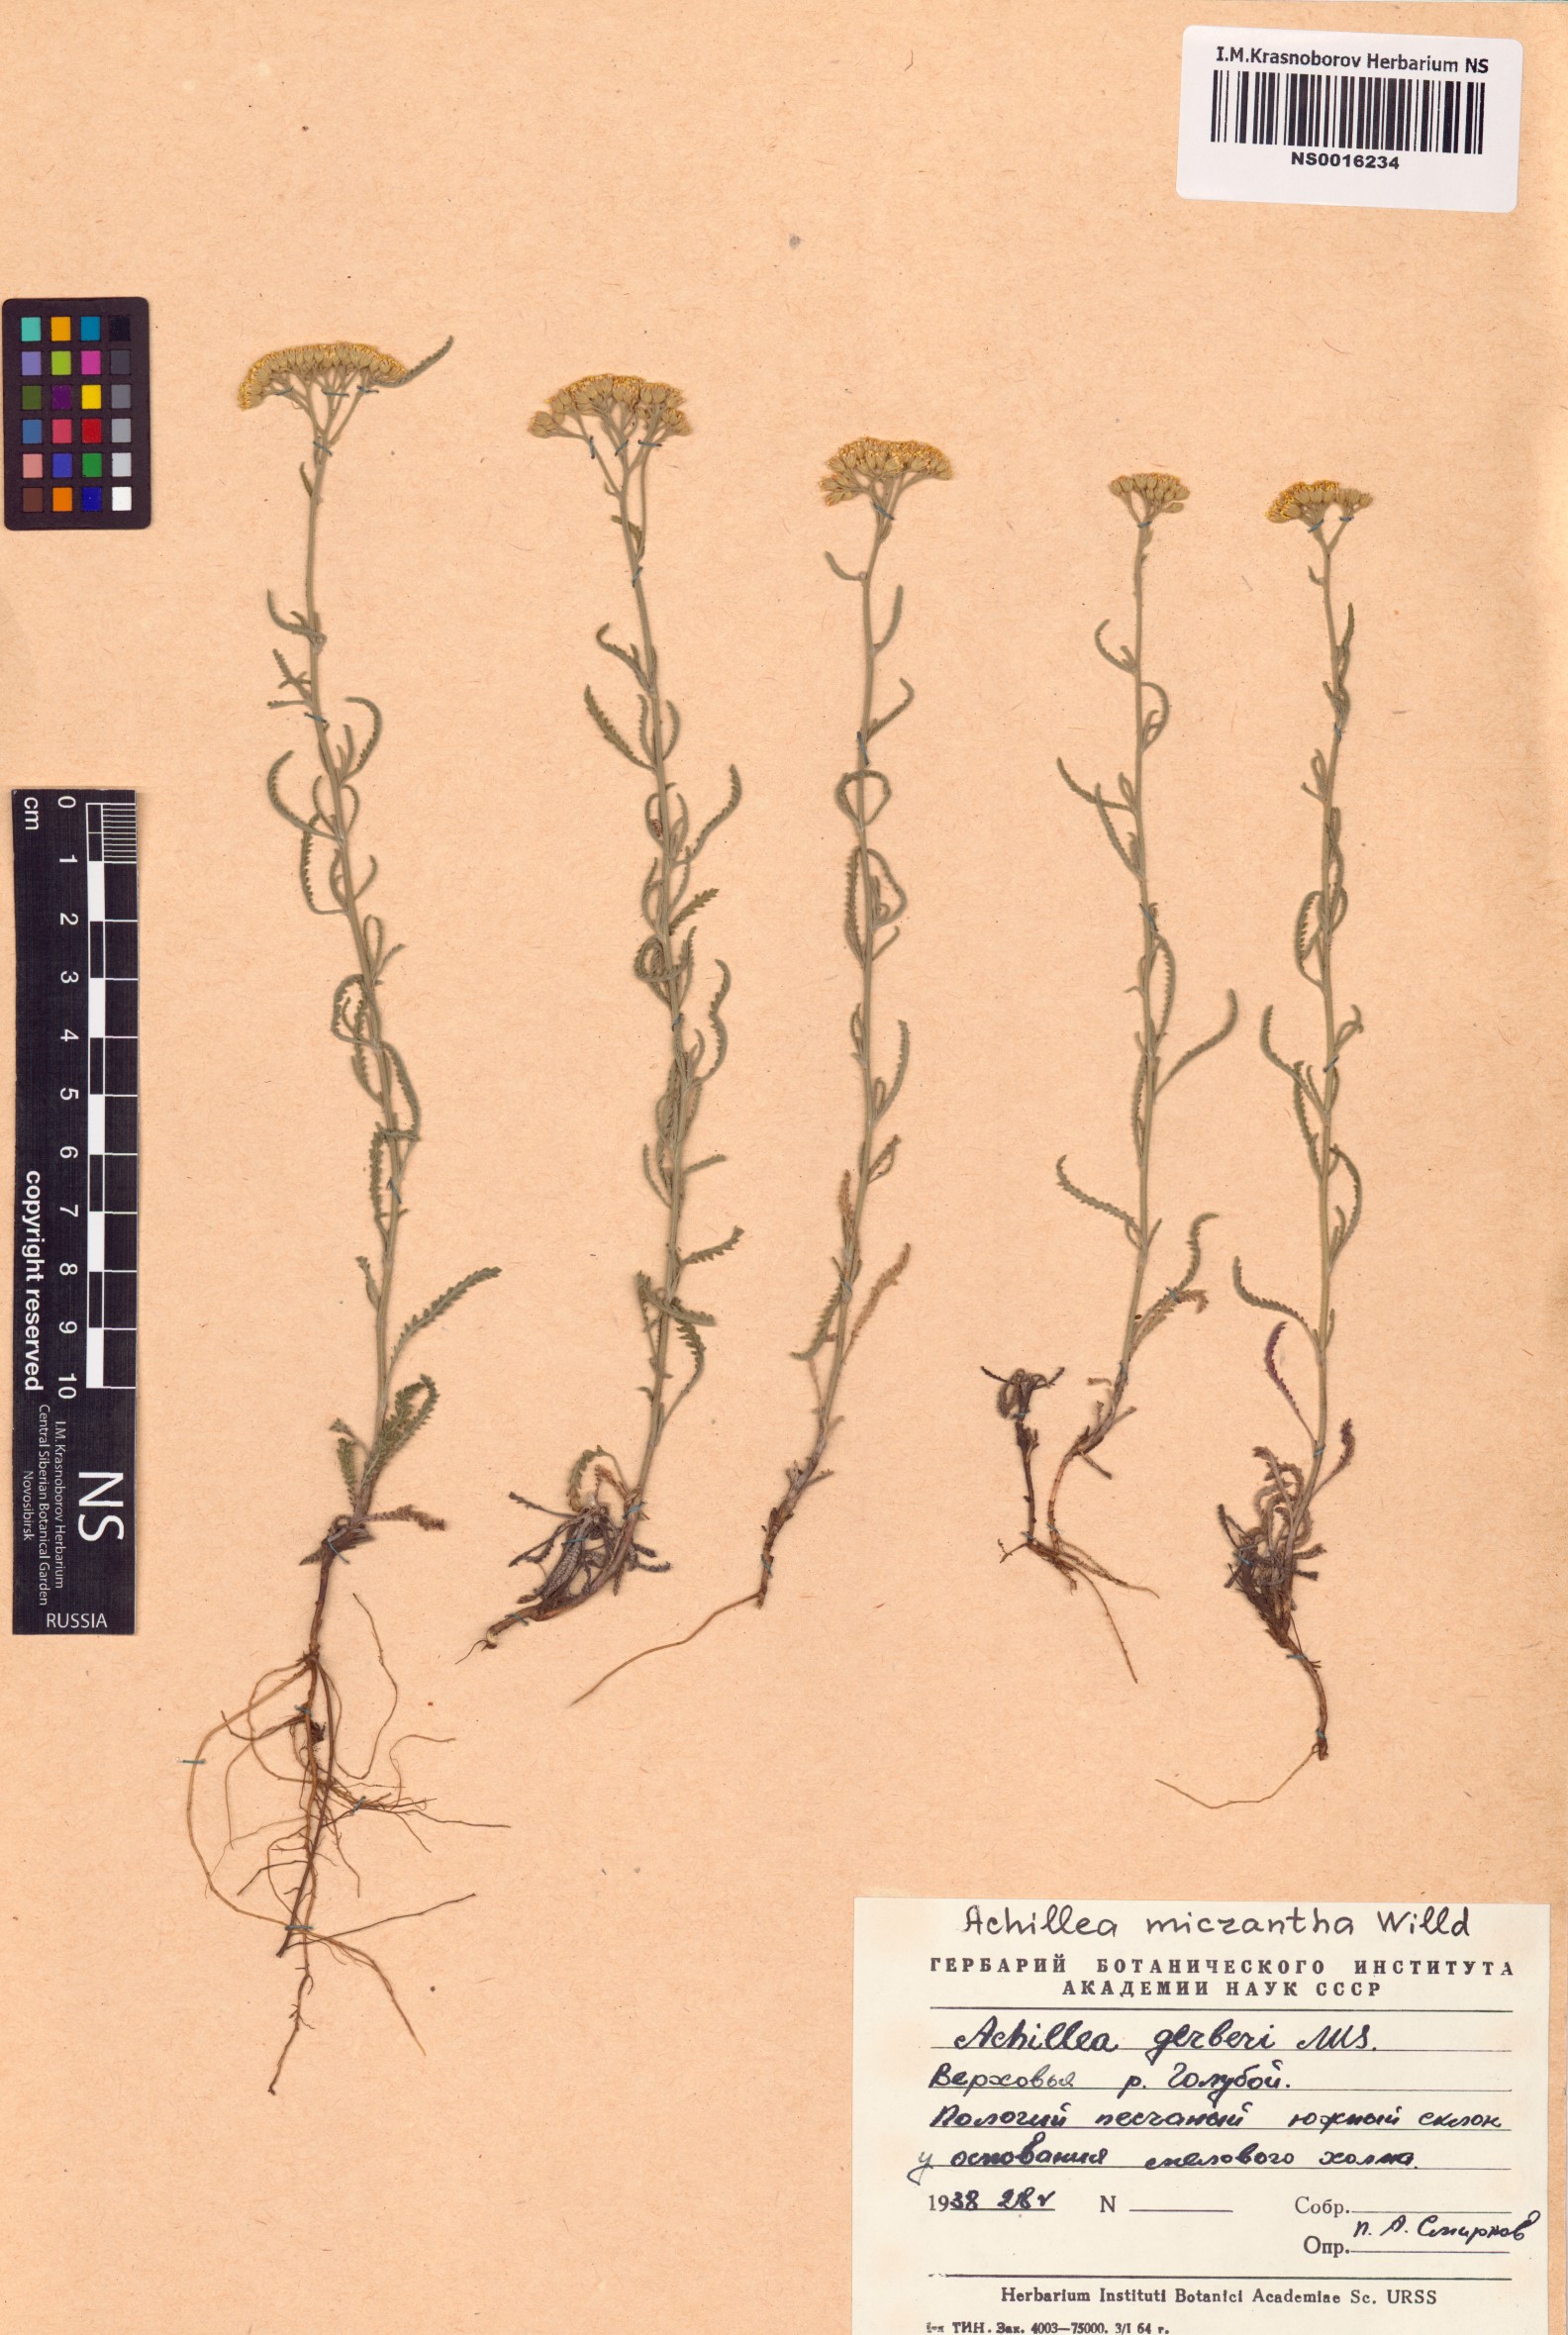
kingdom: Plantae
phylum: Tracheophyta
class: Magnoliopsida
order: Asterales
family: Asteraceae
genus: Achillea
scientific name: Achillea micrantha
